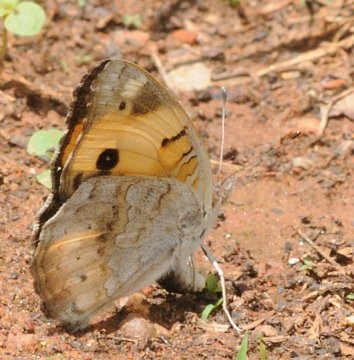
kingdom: Animalia
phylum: Arthropoda
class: Insecta
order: Lepidoptera
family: Nymphalidae
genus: Junonia
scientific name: Junonia hierta
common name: Yellow Pansy
